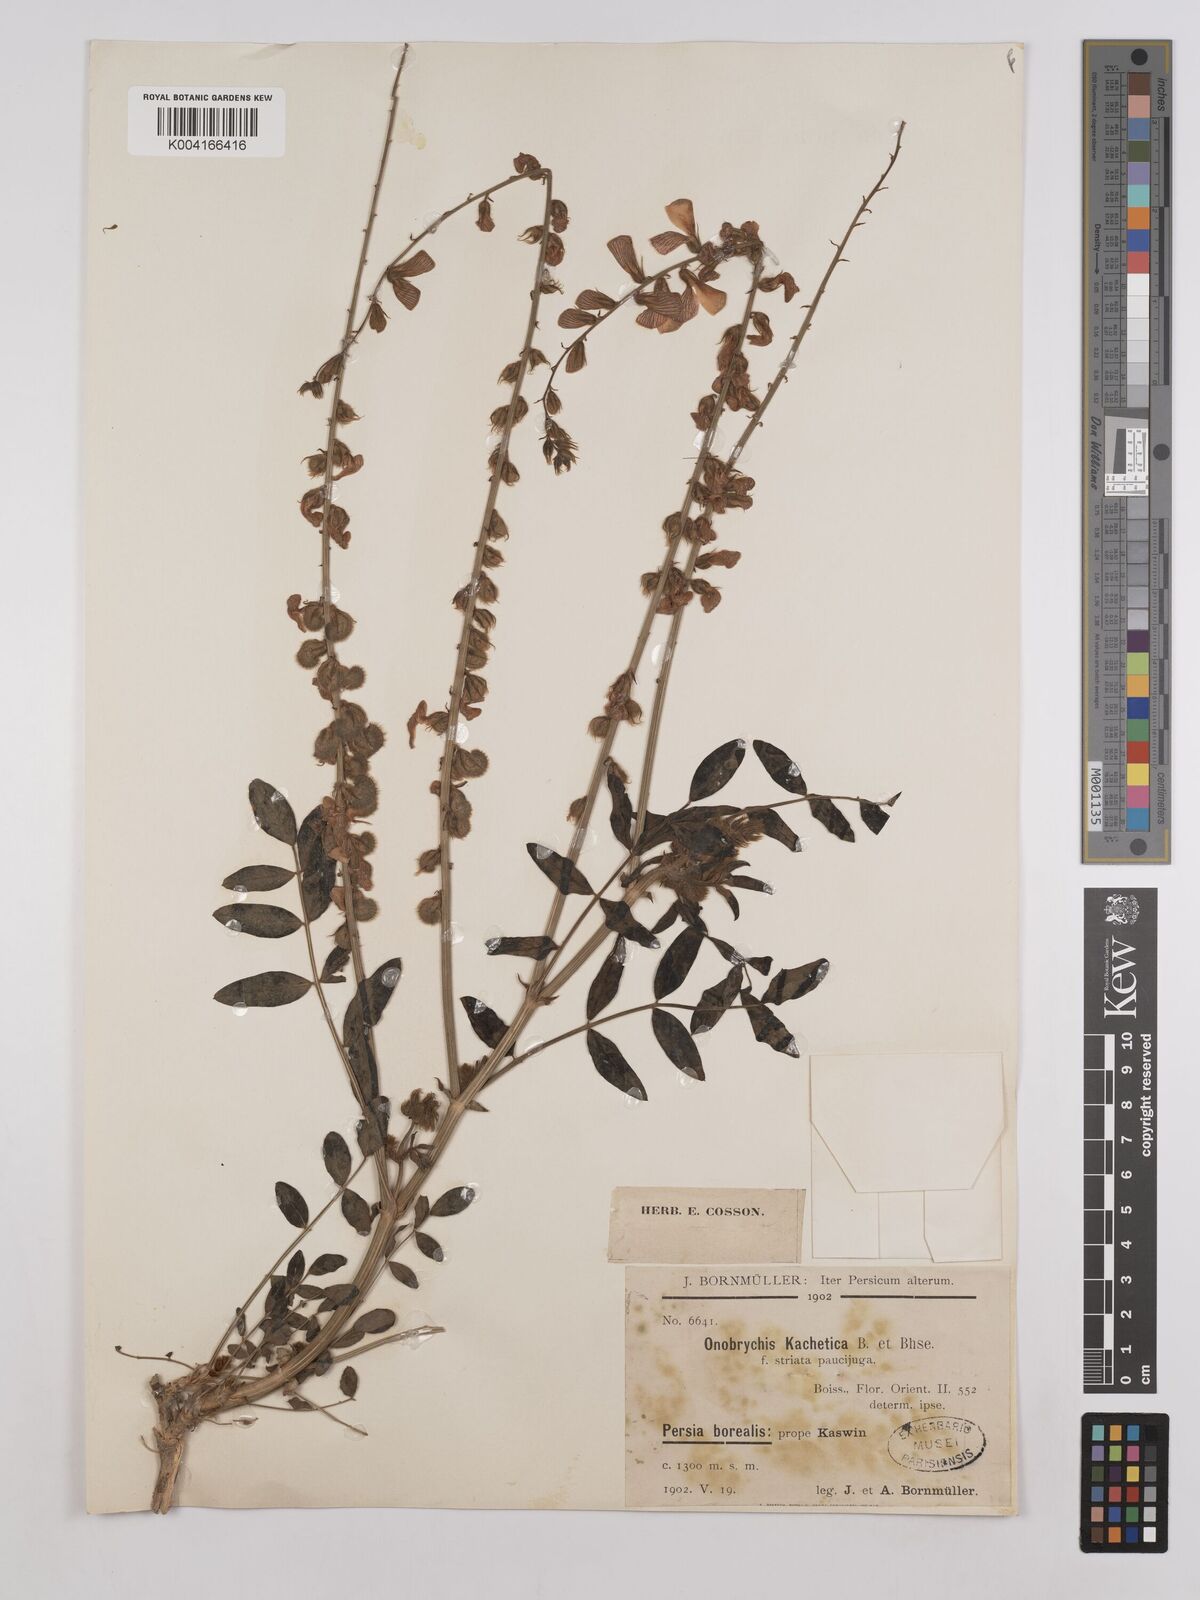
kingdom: Plantae
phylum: Tracheophyta
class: Magnoliopsida
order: Fabales
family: Fabaceae
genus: Onobrychis
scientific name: Onobrychis
